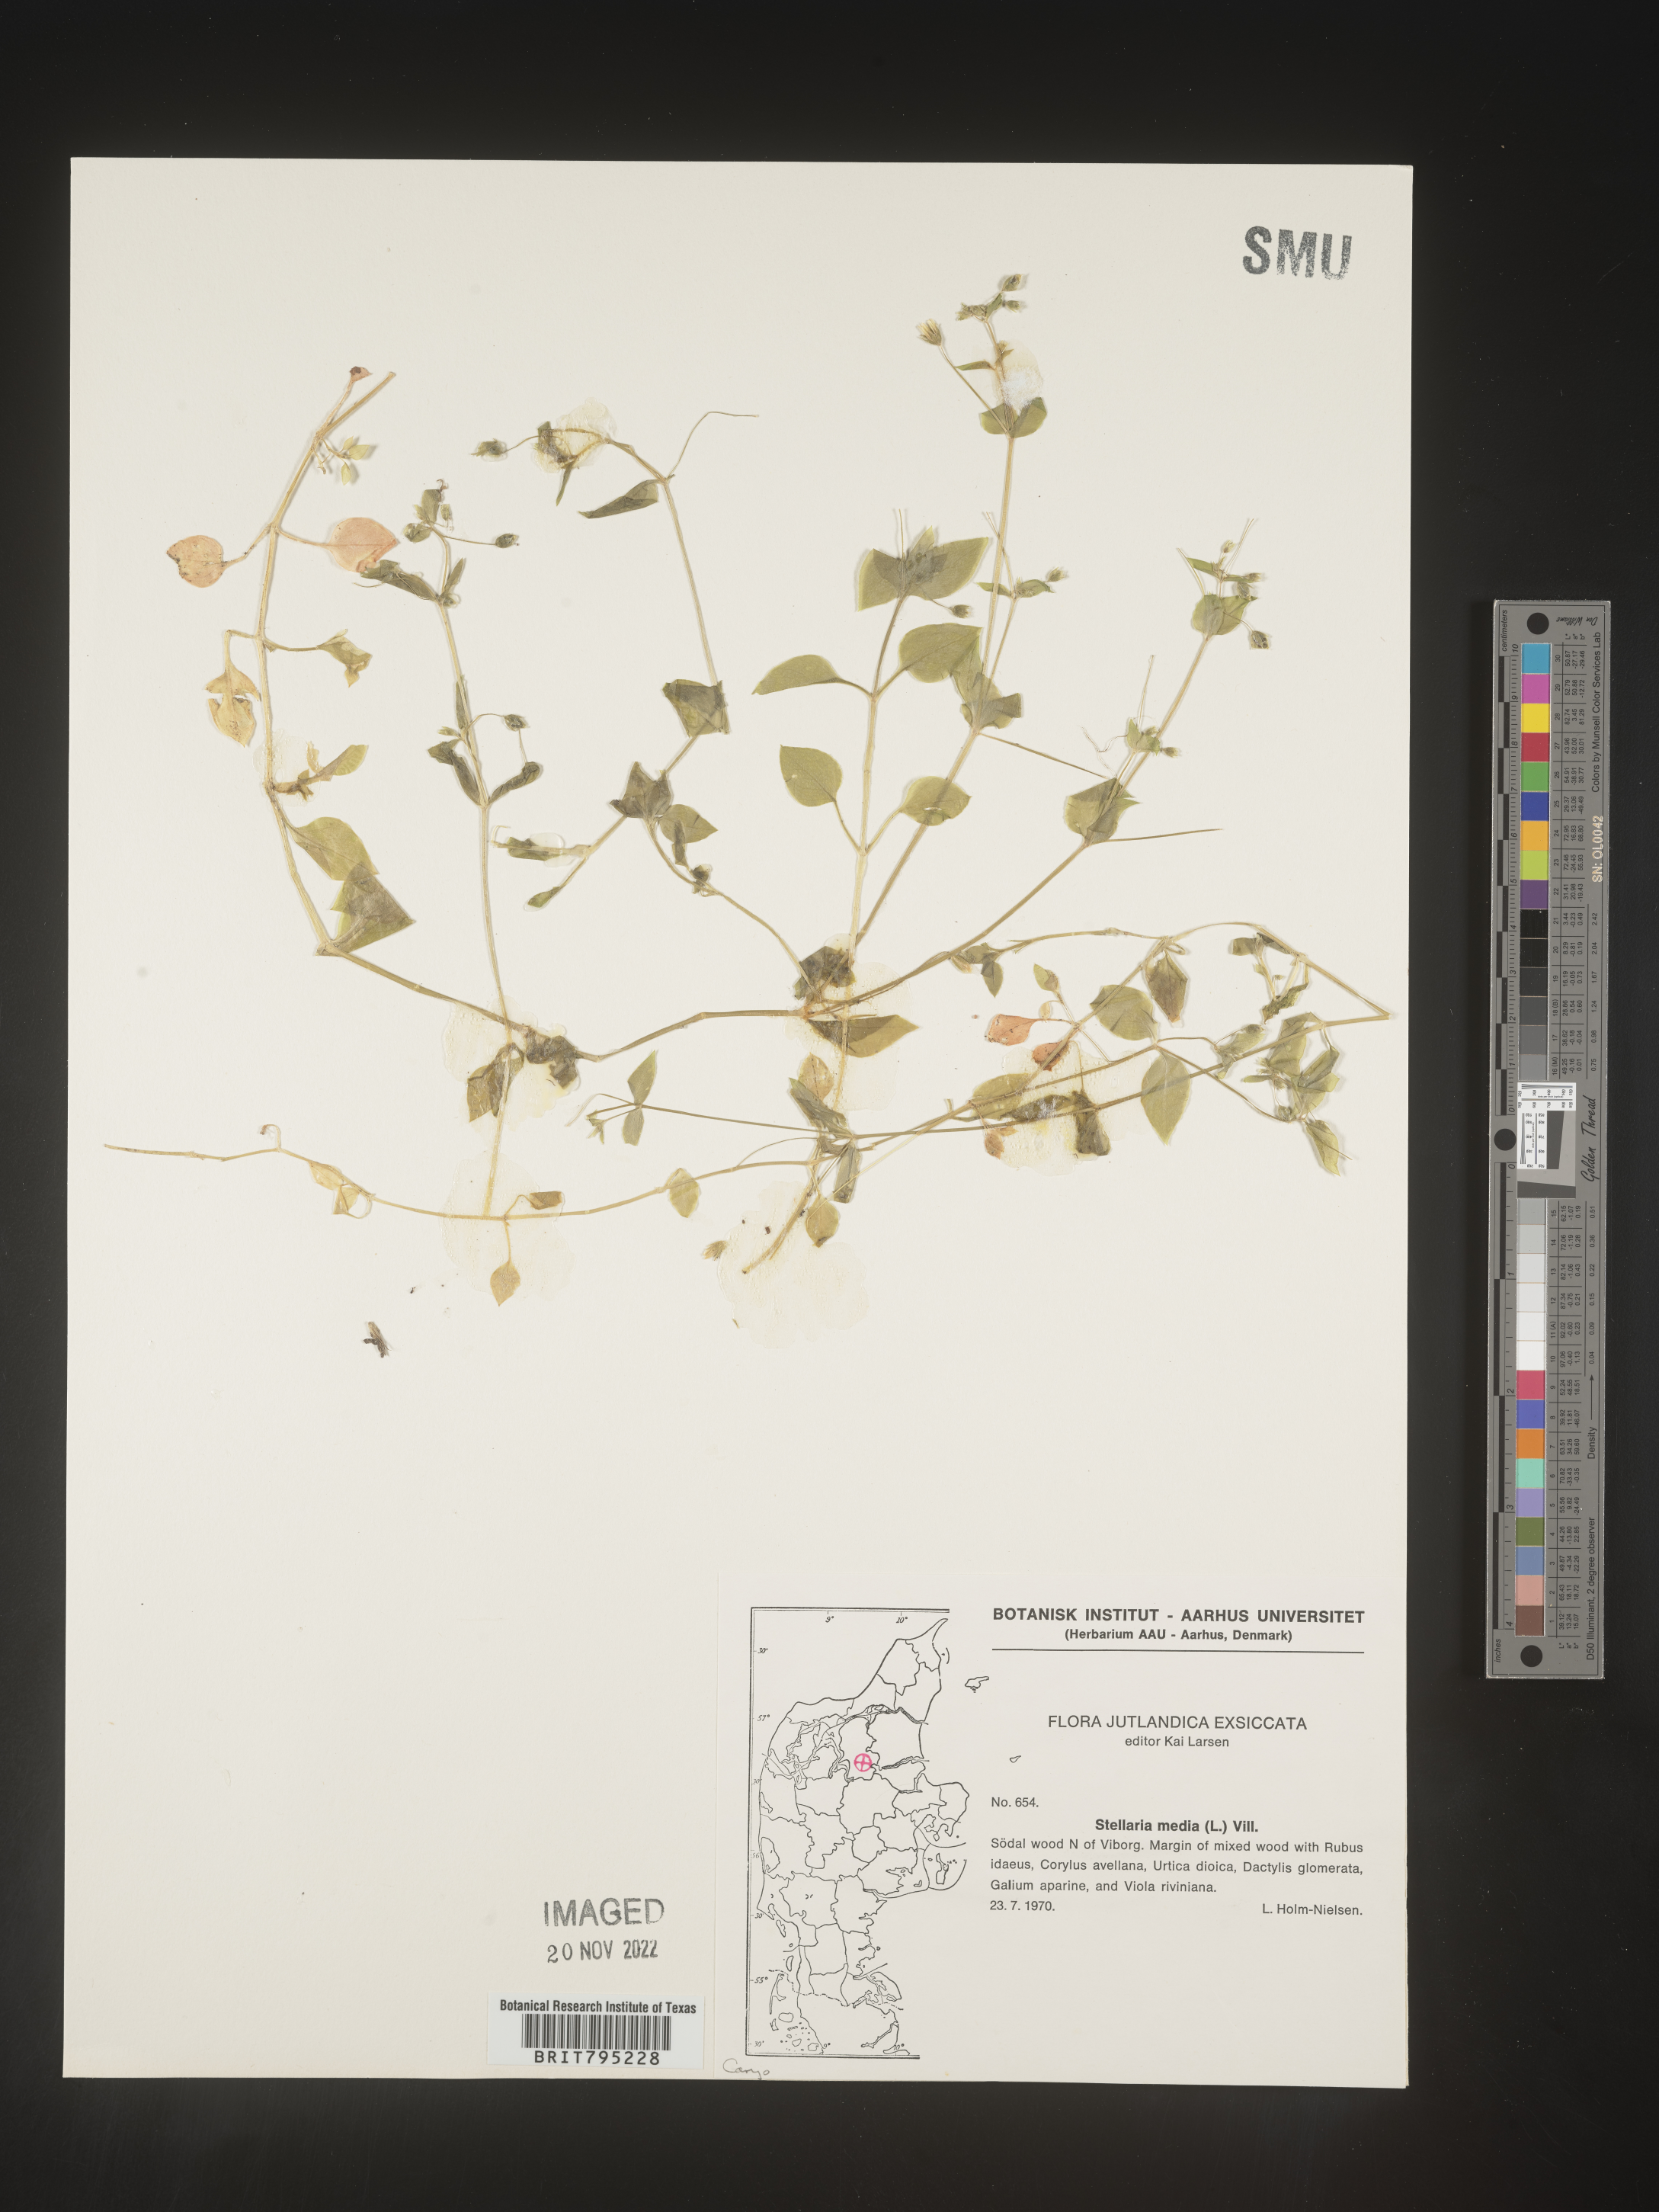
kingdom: Plantae
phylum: Tracheophyta
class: Magnoliopsida
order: Caryophyllales
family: Caryophyllaceae
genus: Stellaria
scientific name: Stellaria
